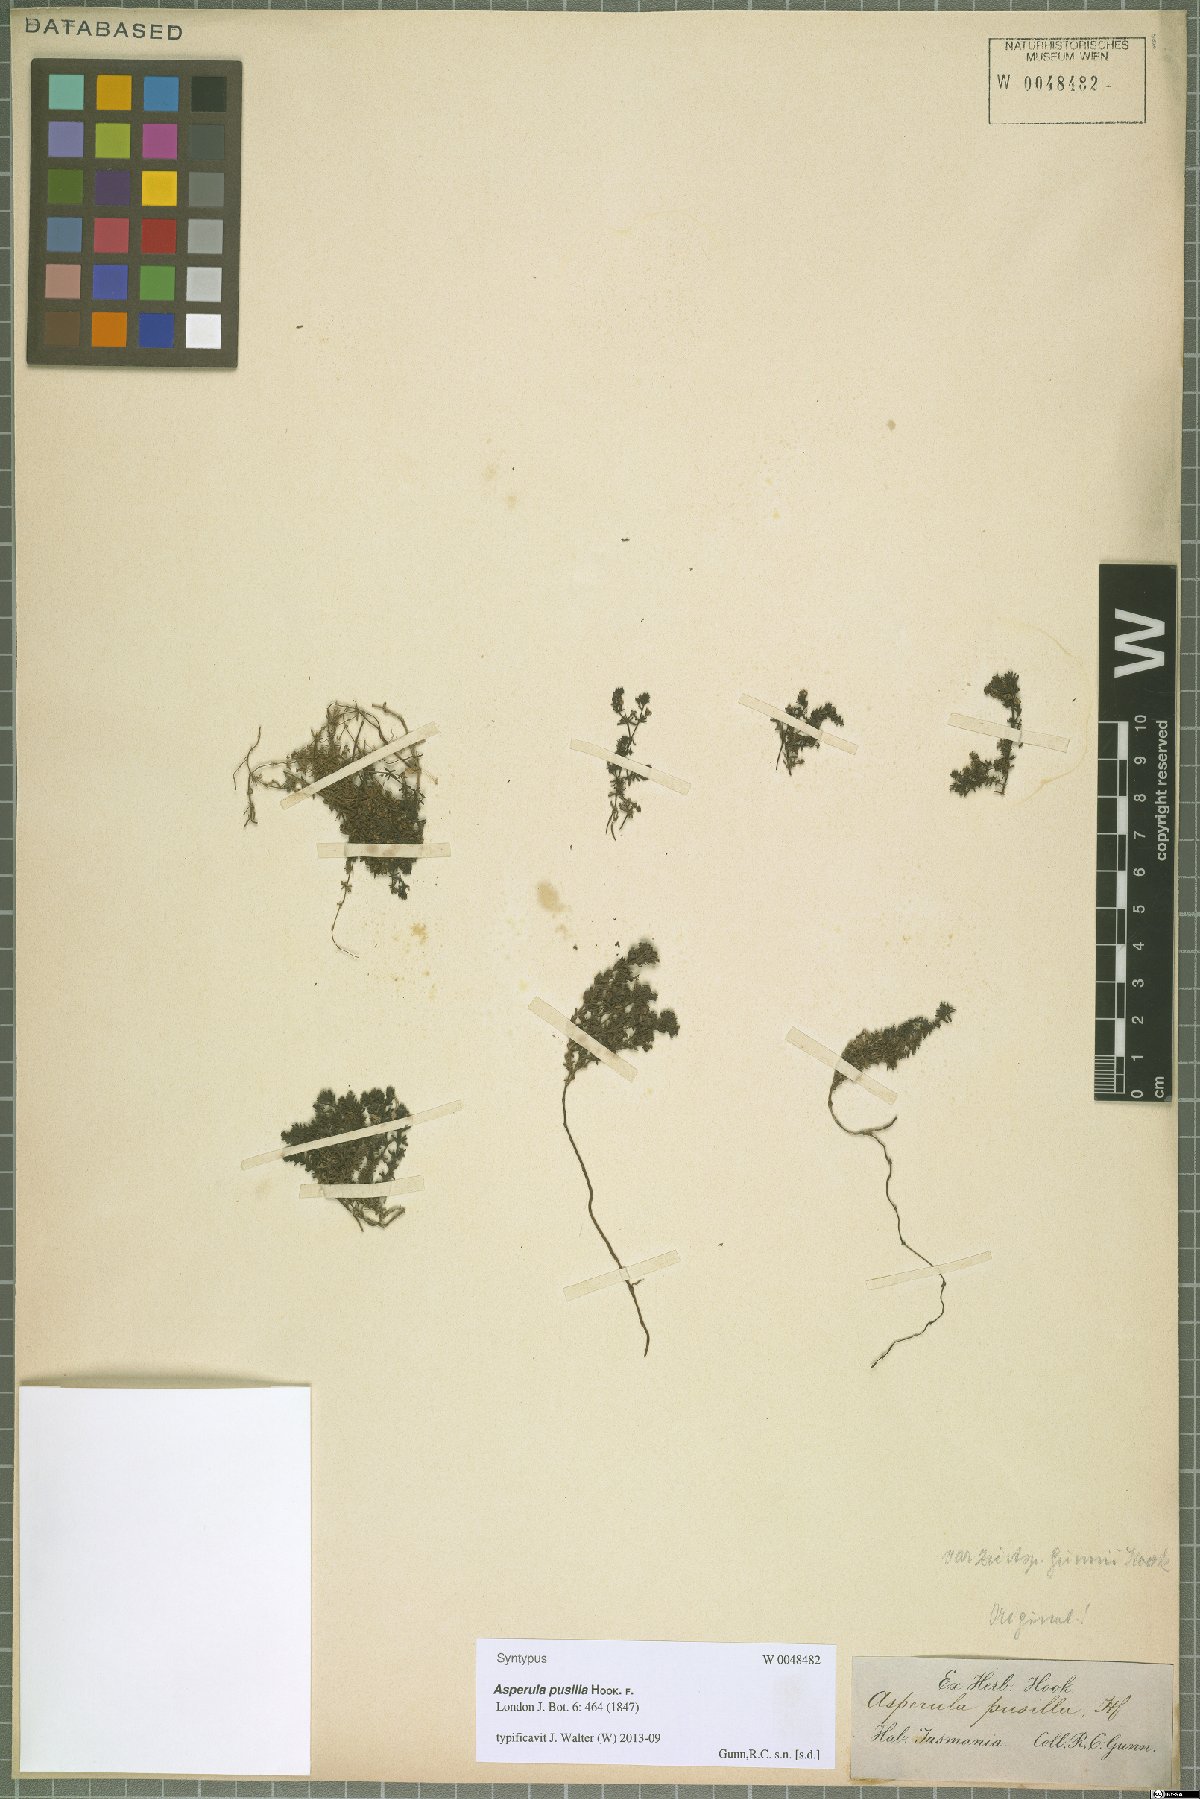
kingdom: Plantae
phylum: Tracheophyta
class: Magnoliopsida
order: Gentianales
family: Rubiaceae
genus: Asperula
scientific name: Asperula pusilla
